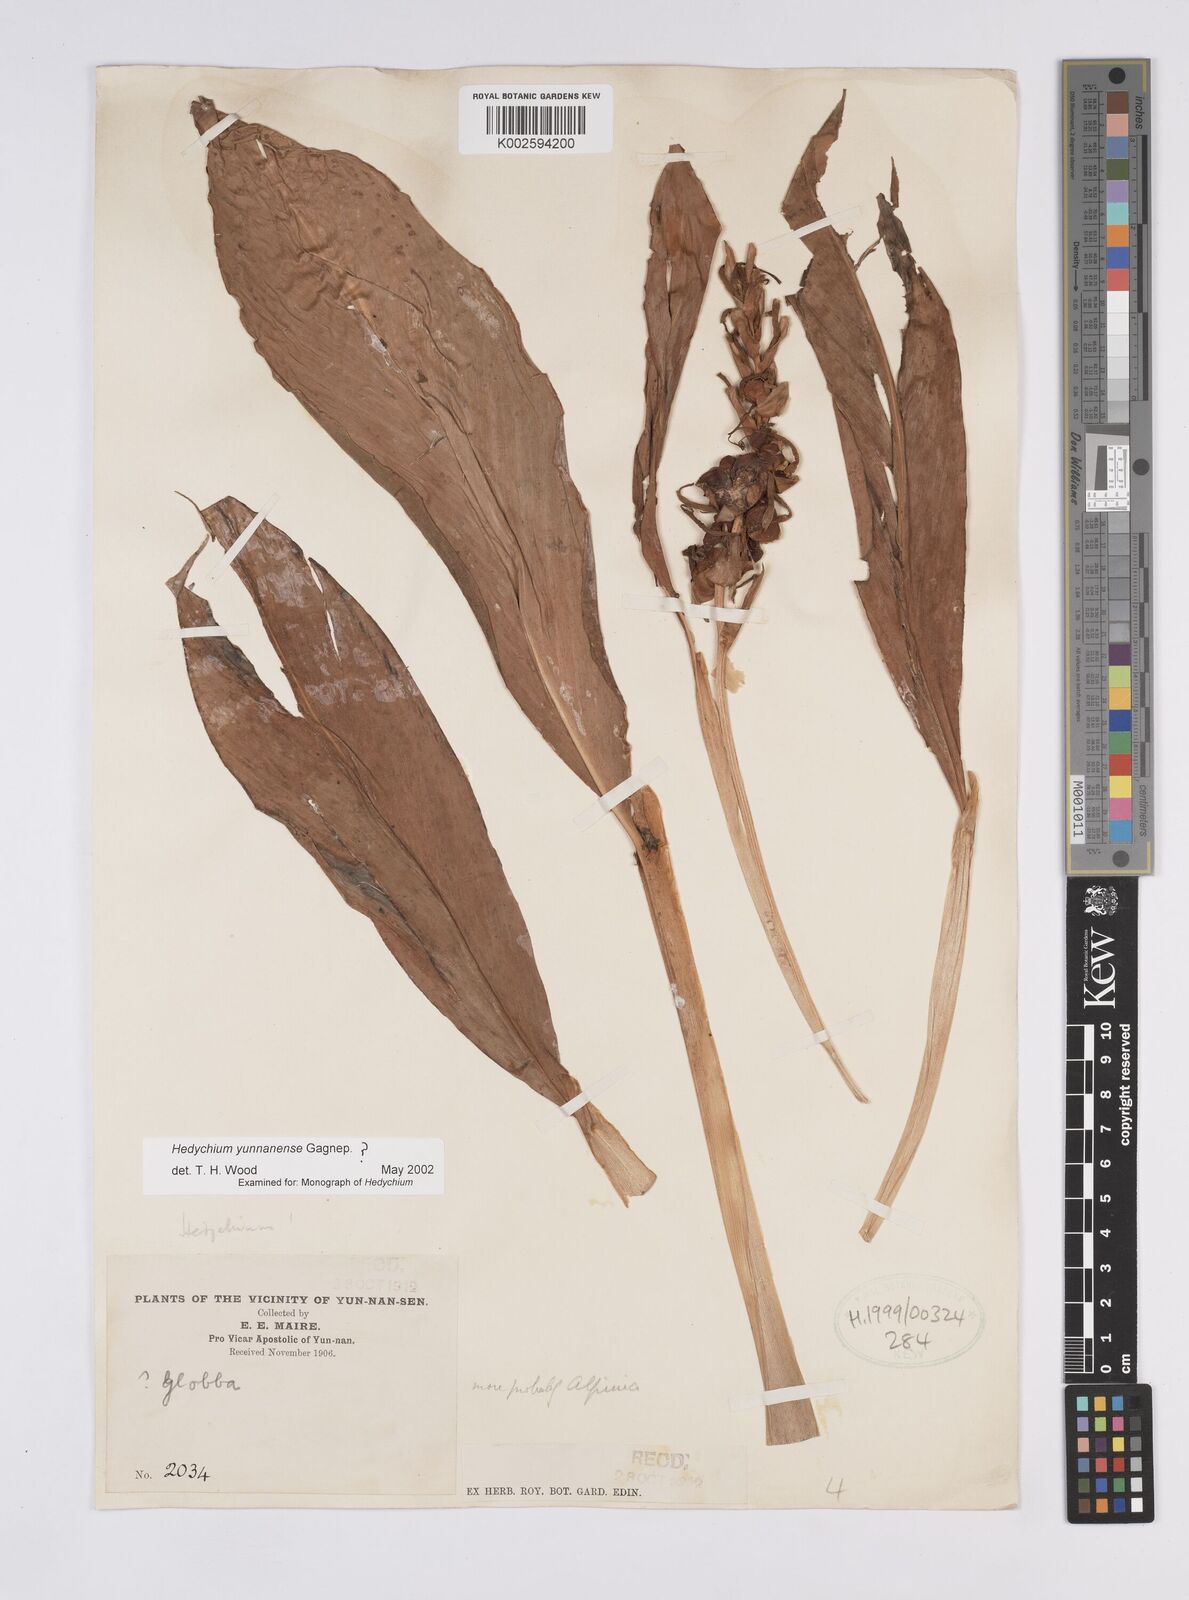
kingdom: Plantae
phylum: Tracheophyta
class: Liliopsida
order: Zingiberales
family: Zingiberaceae
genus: Hedychium
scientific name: Hedychium yunnanense
